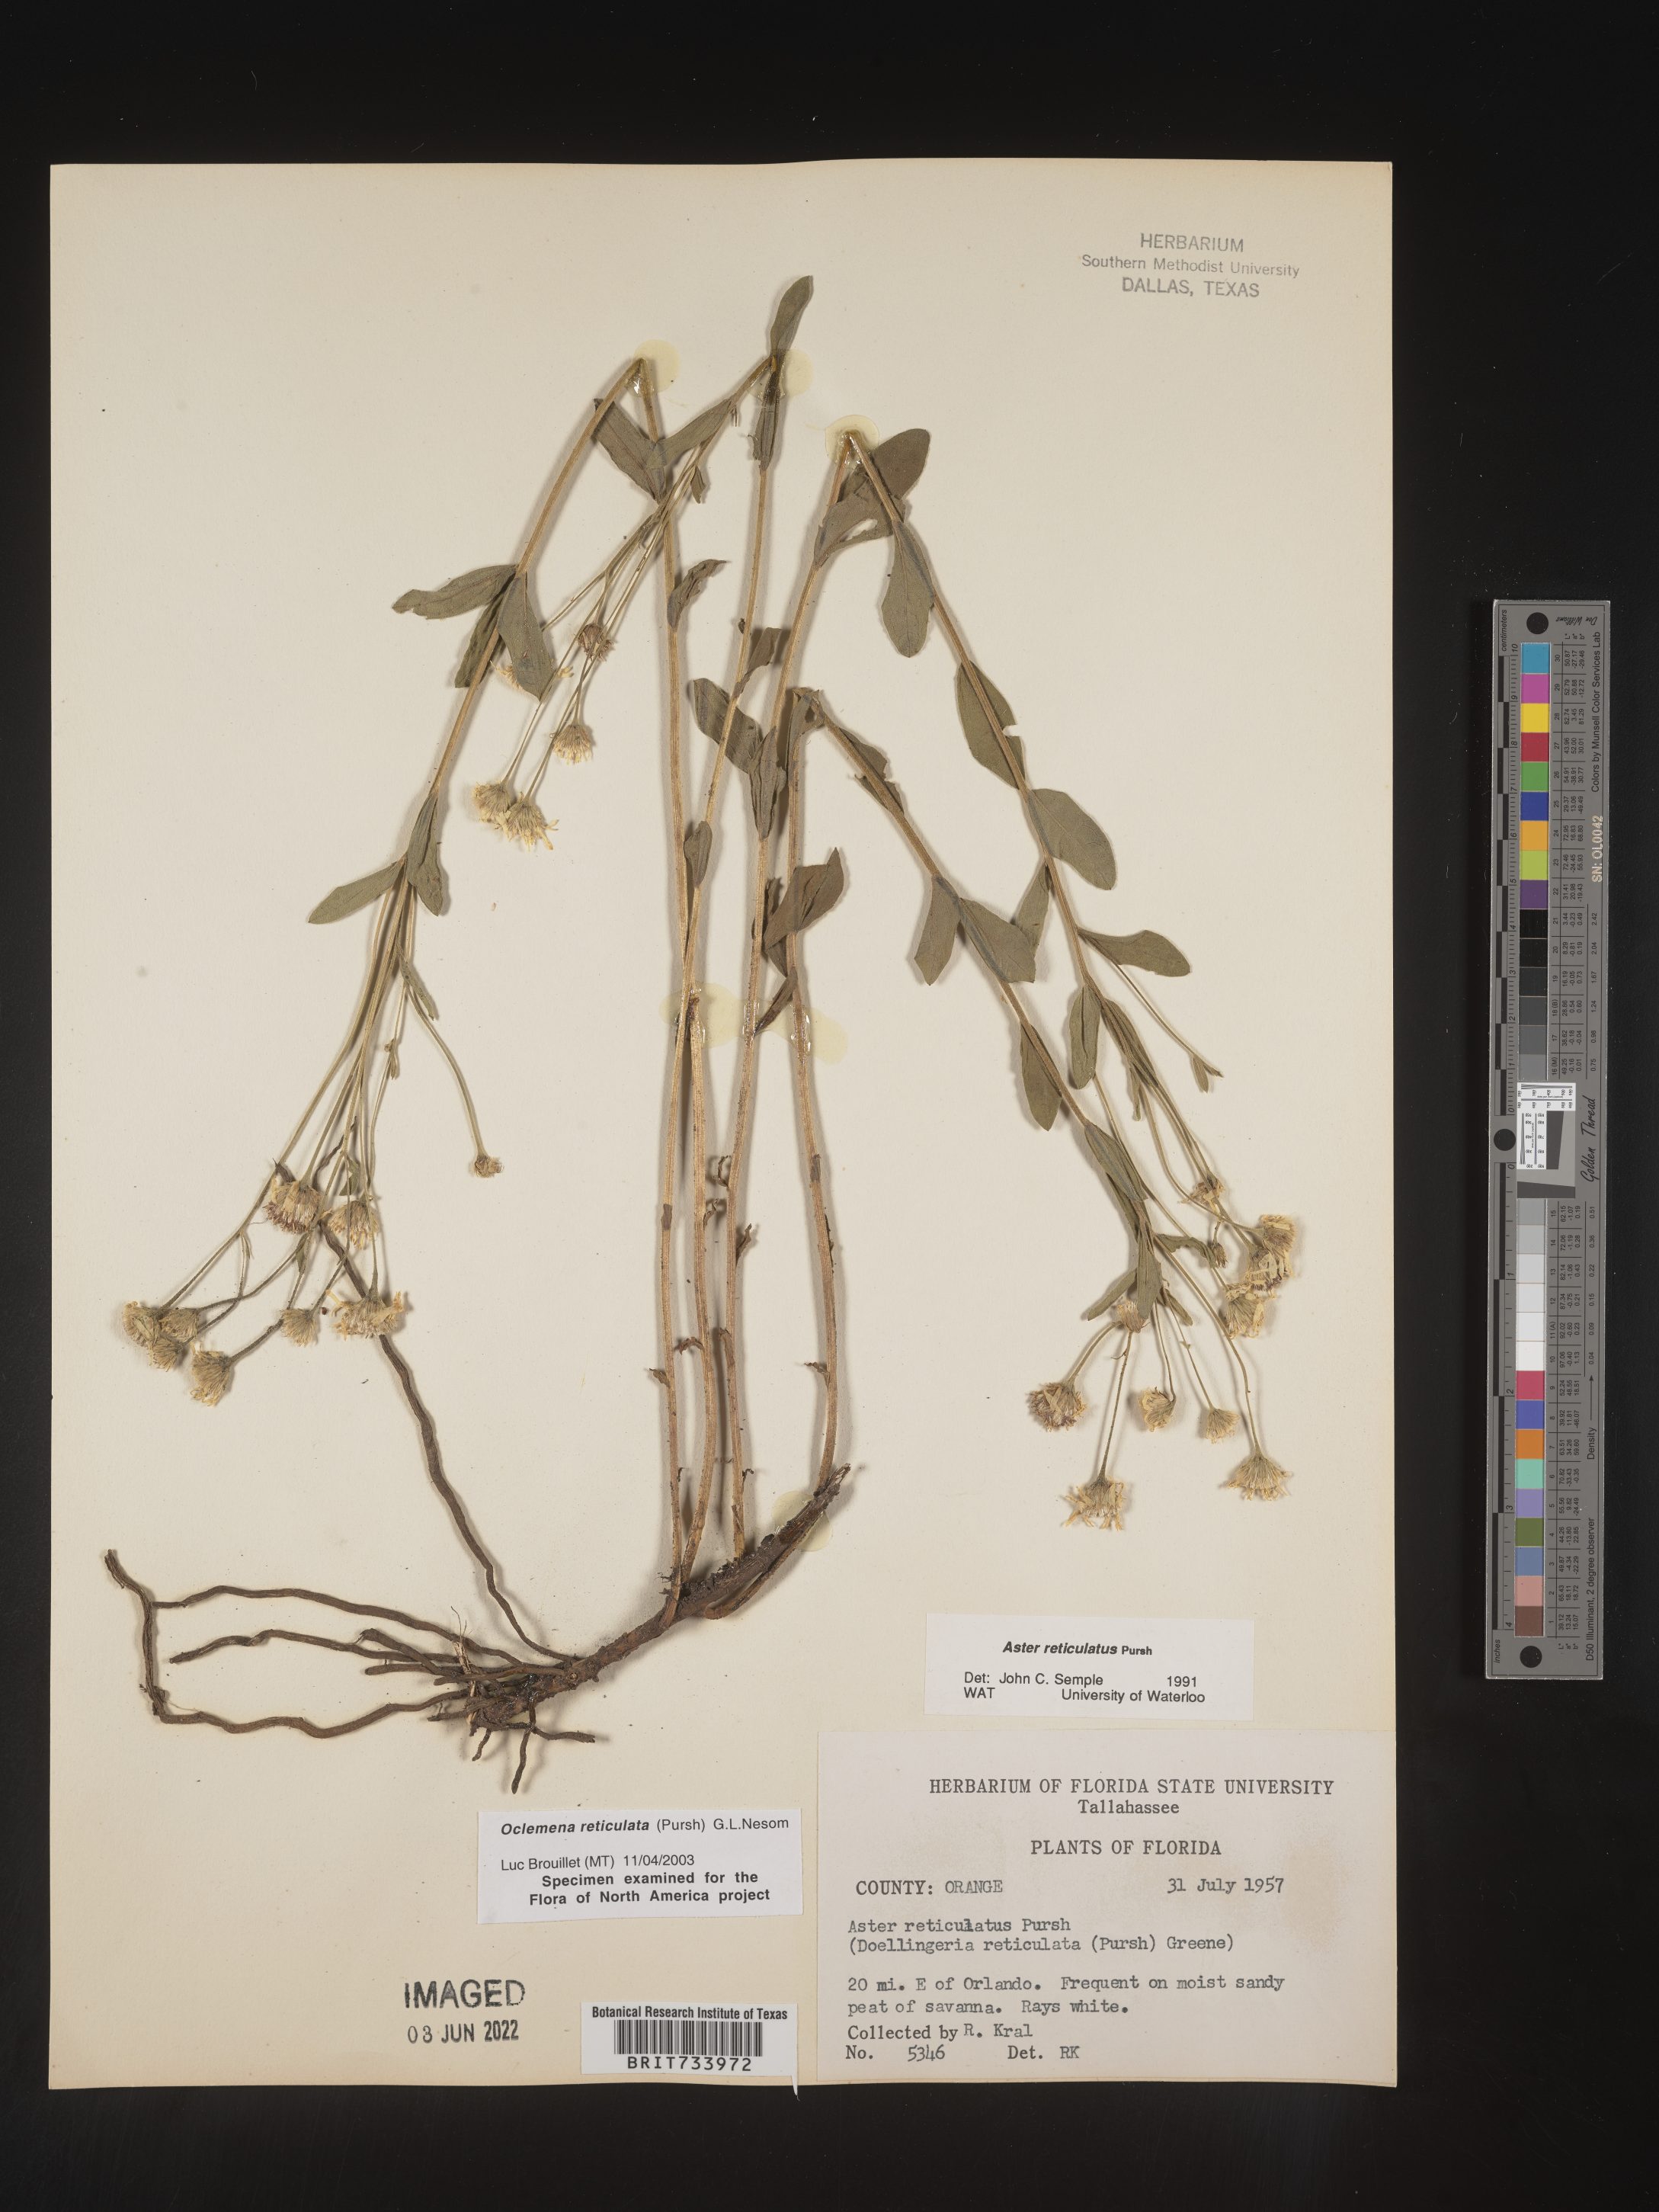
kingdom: Plantae
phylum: Tracheophyta
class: Magnoliopsida
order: Asterales
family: Asteraceae
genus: Oclemena
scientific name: Oclemena reticulata
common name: Pinebarren aster
